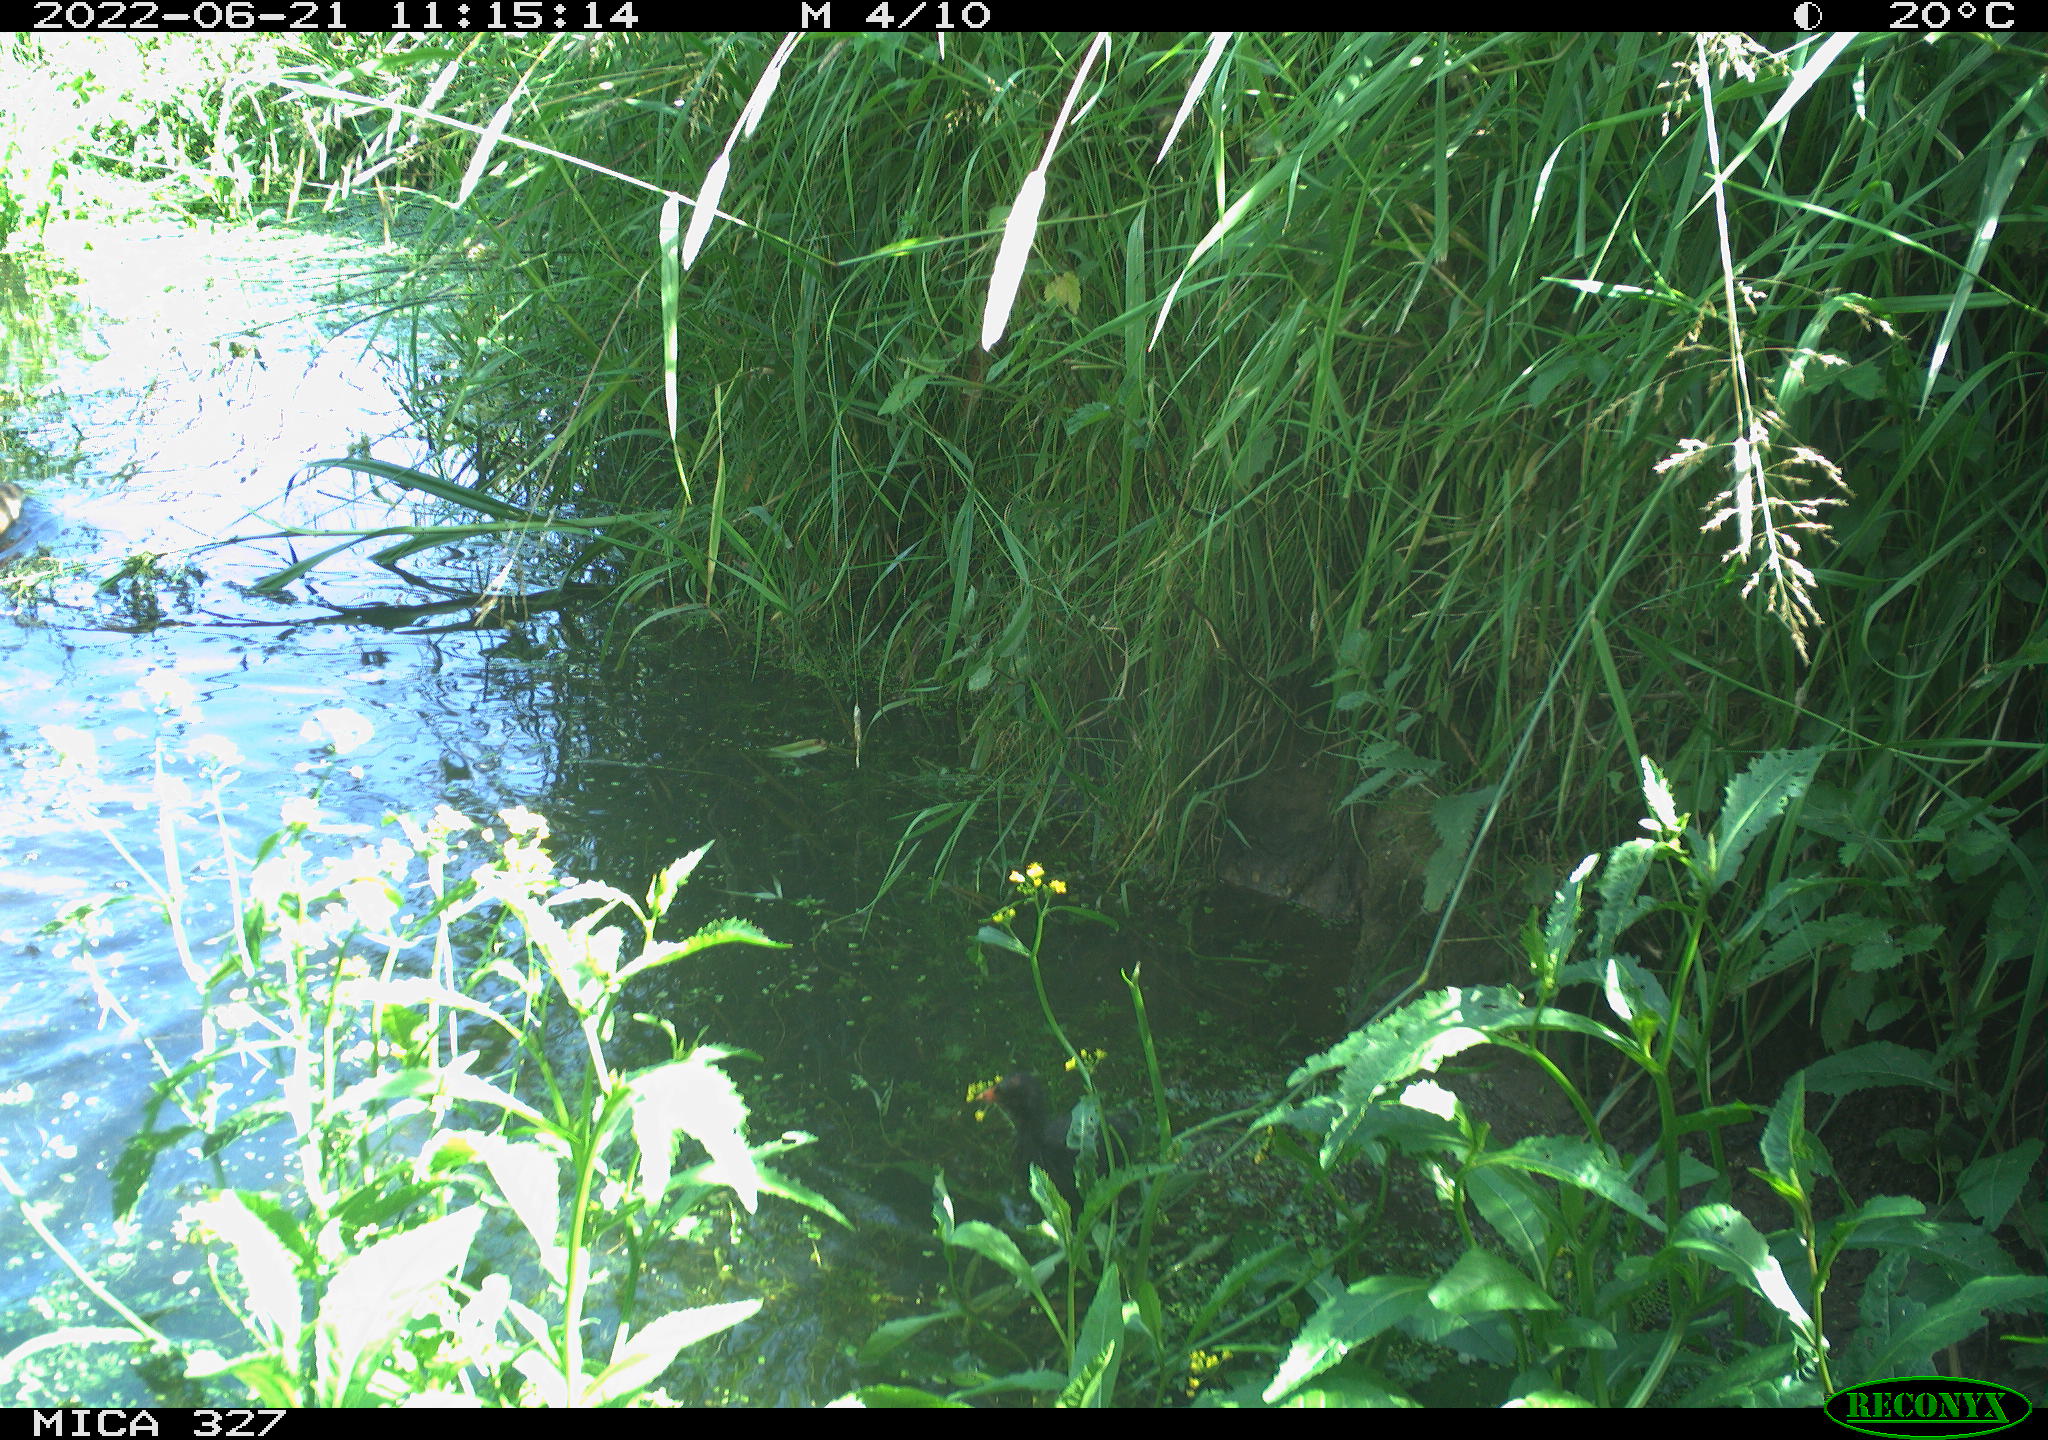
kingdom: Animalia
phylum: Chordata
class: Mammalia
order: Rodentia
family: Cricetidae
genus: Ondatra
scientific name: Ondatra zibethicus
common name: Muskrat
